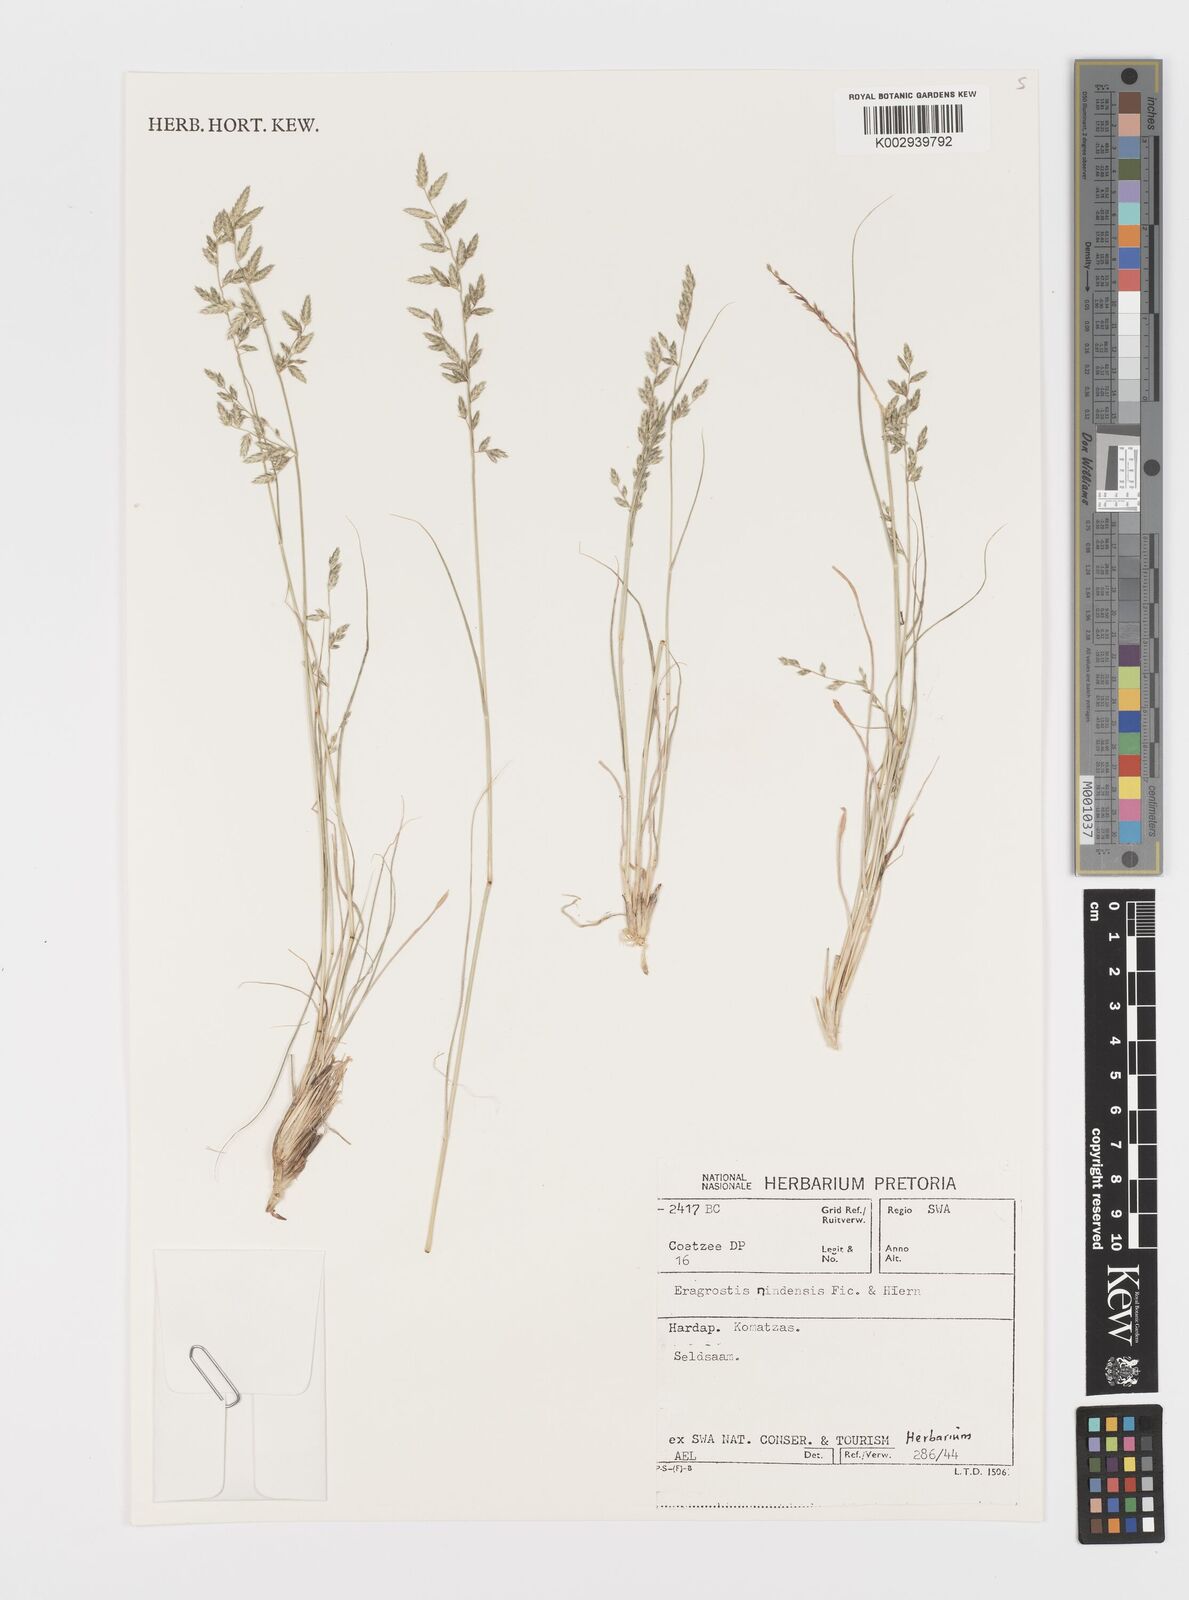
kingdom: Plantae
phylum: Tracheophyta
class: Liliopsida
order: Poales
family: Poaceae
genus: Eragrostis
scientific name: Eragrostis nindensis
